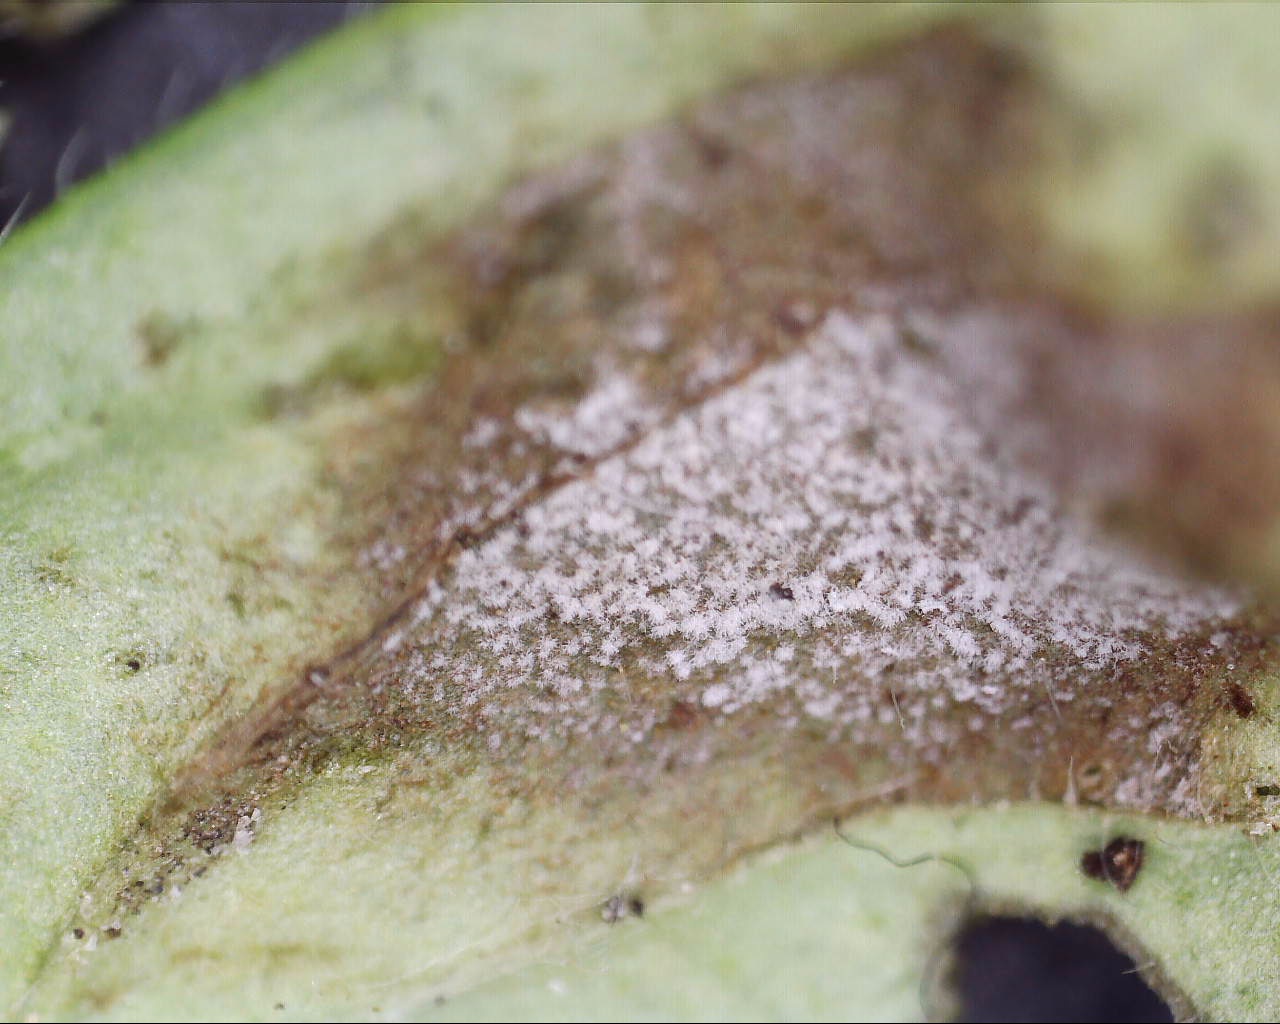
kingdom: Fungi
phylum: Ascomycota
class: Dothideomycetes
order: Mycosphaerellales
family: Mycosphaerellaceae
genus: Ramularia
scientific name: Ramularia geranii
